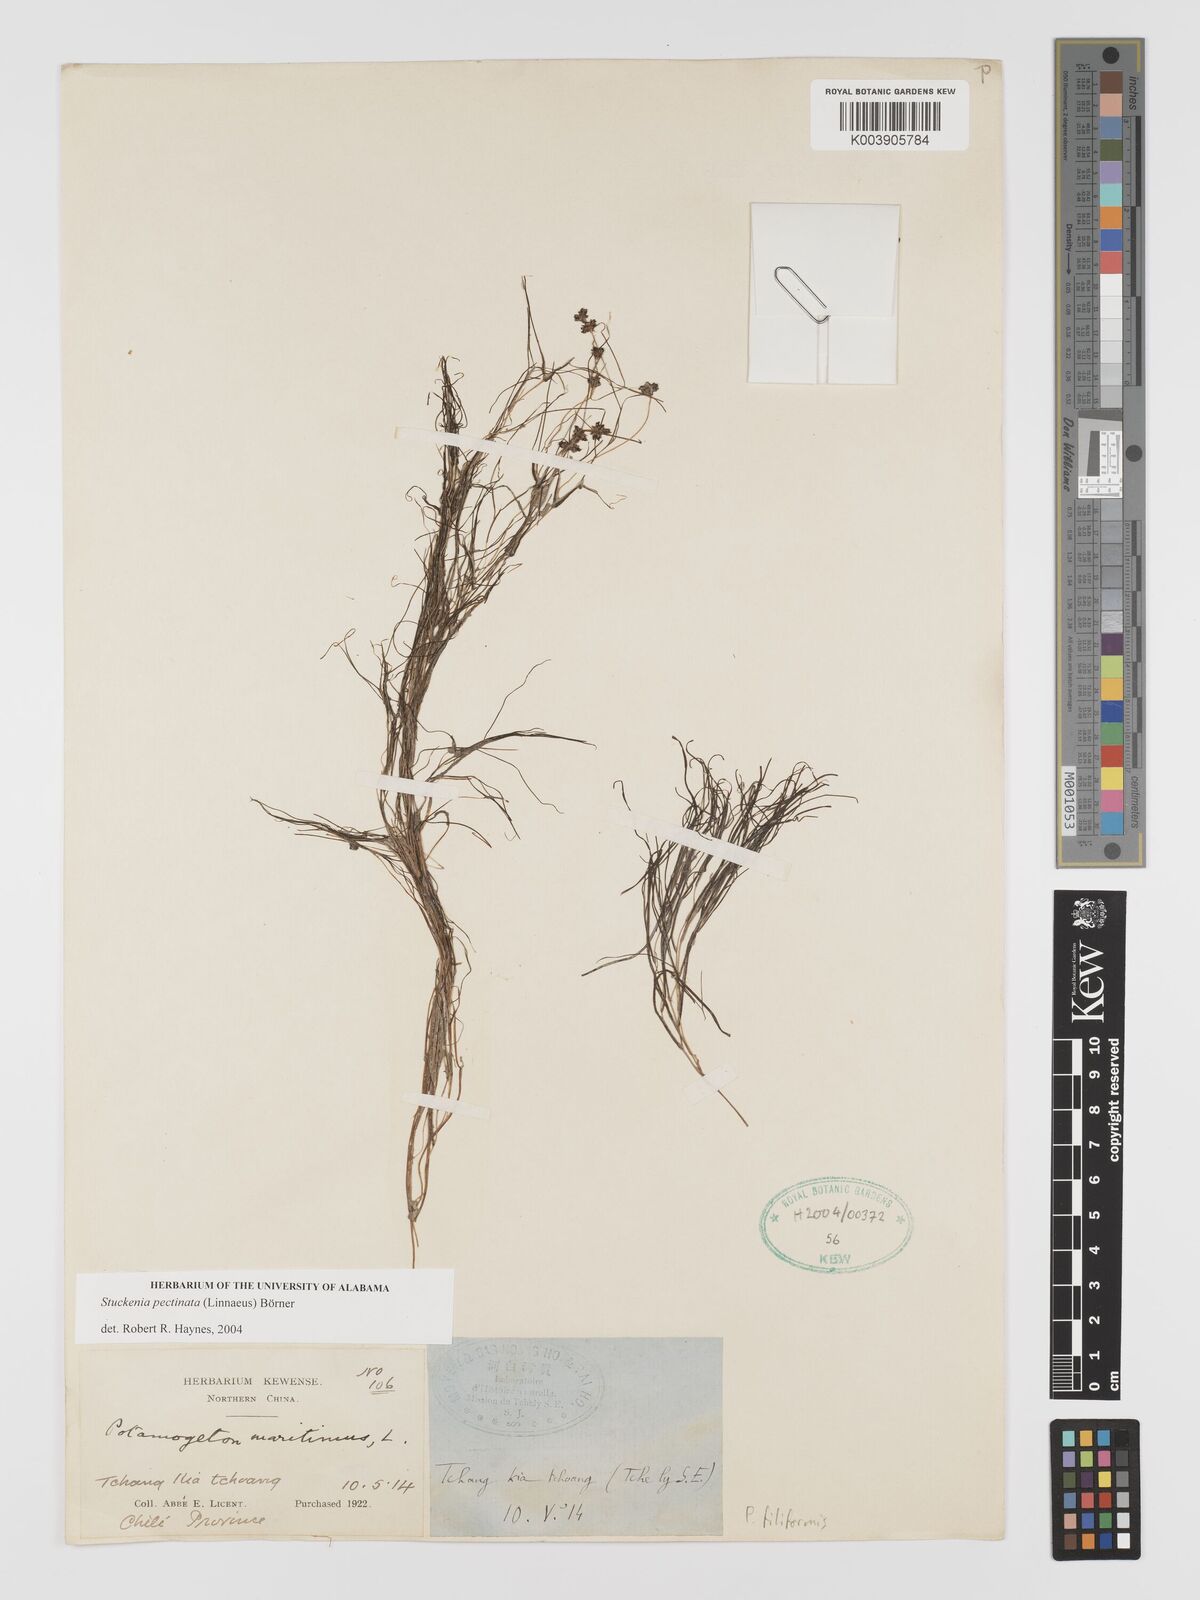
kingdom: Plantae
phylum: Tracheophyta
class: Liliopsida
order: Alismatales
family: Potamogetonaceae
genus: Stuckenia
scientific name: Stuckenia pectinata
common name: Sago pondweed
